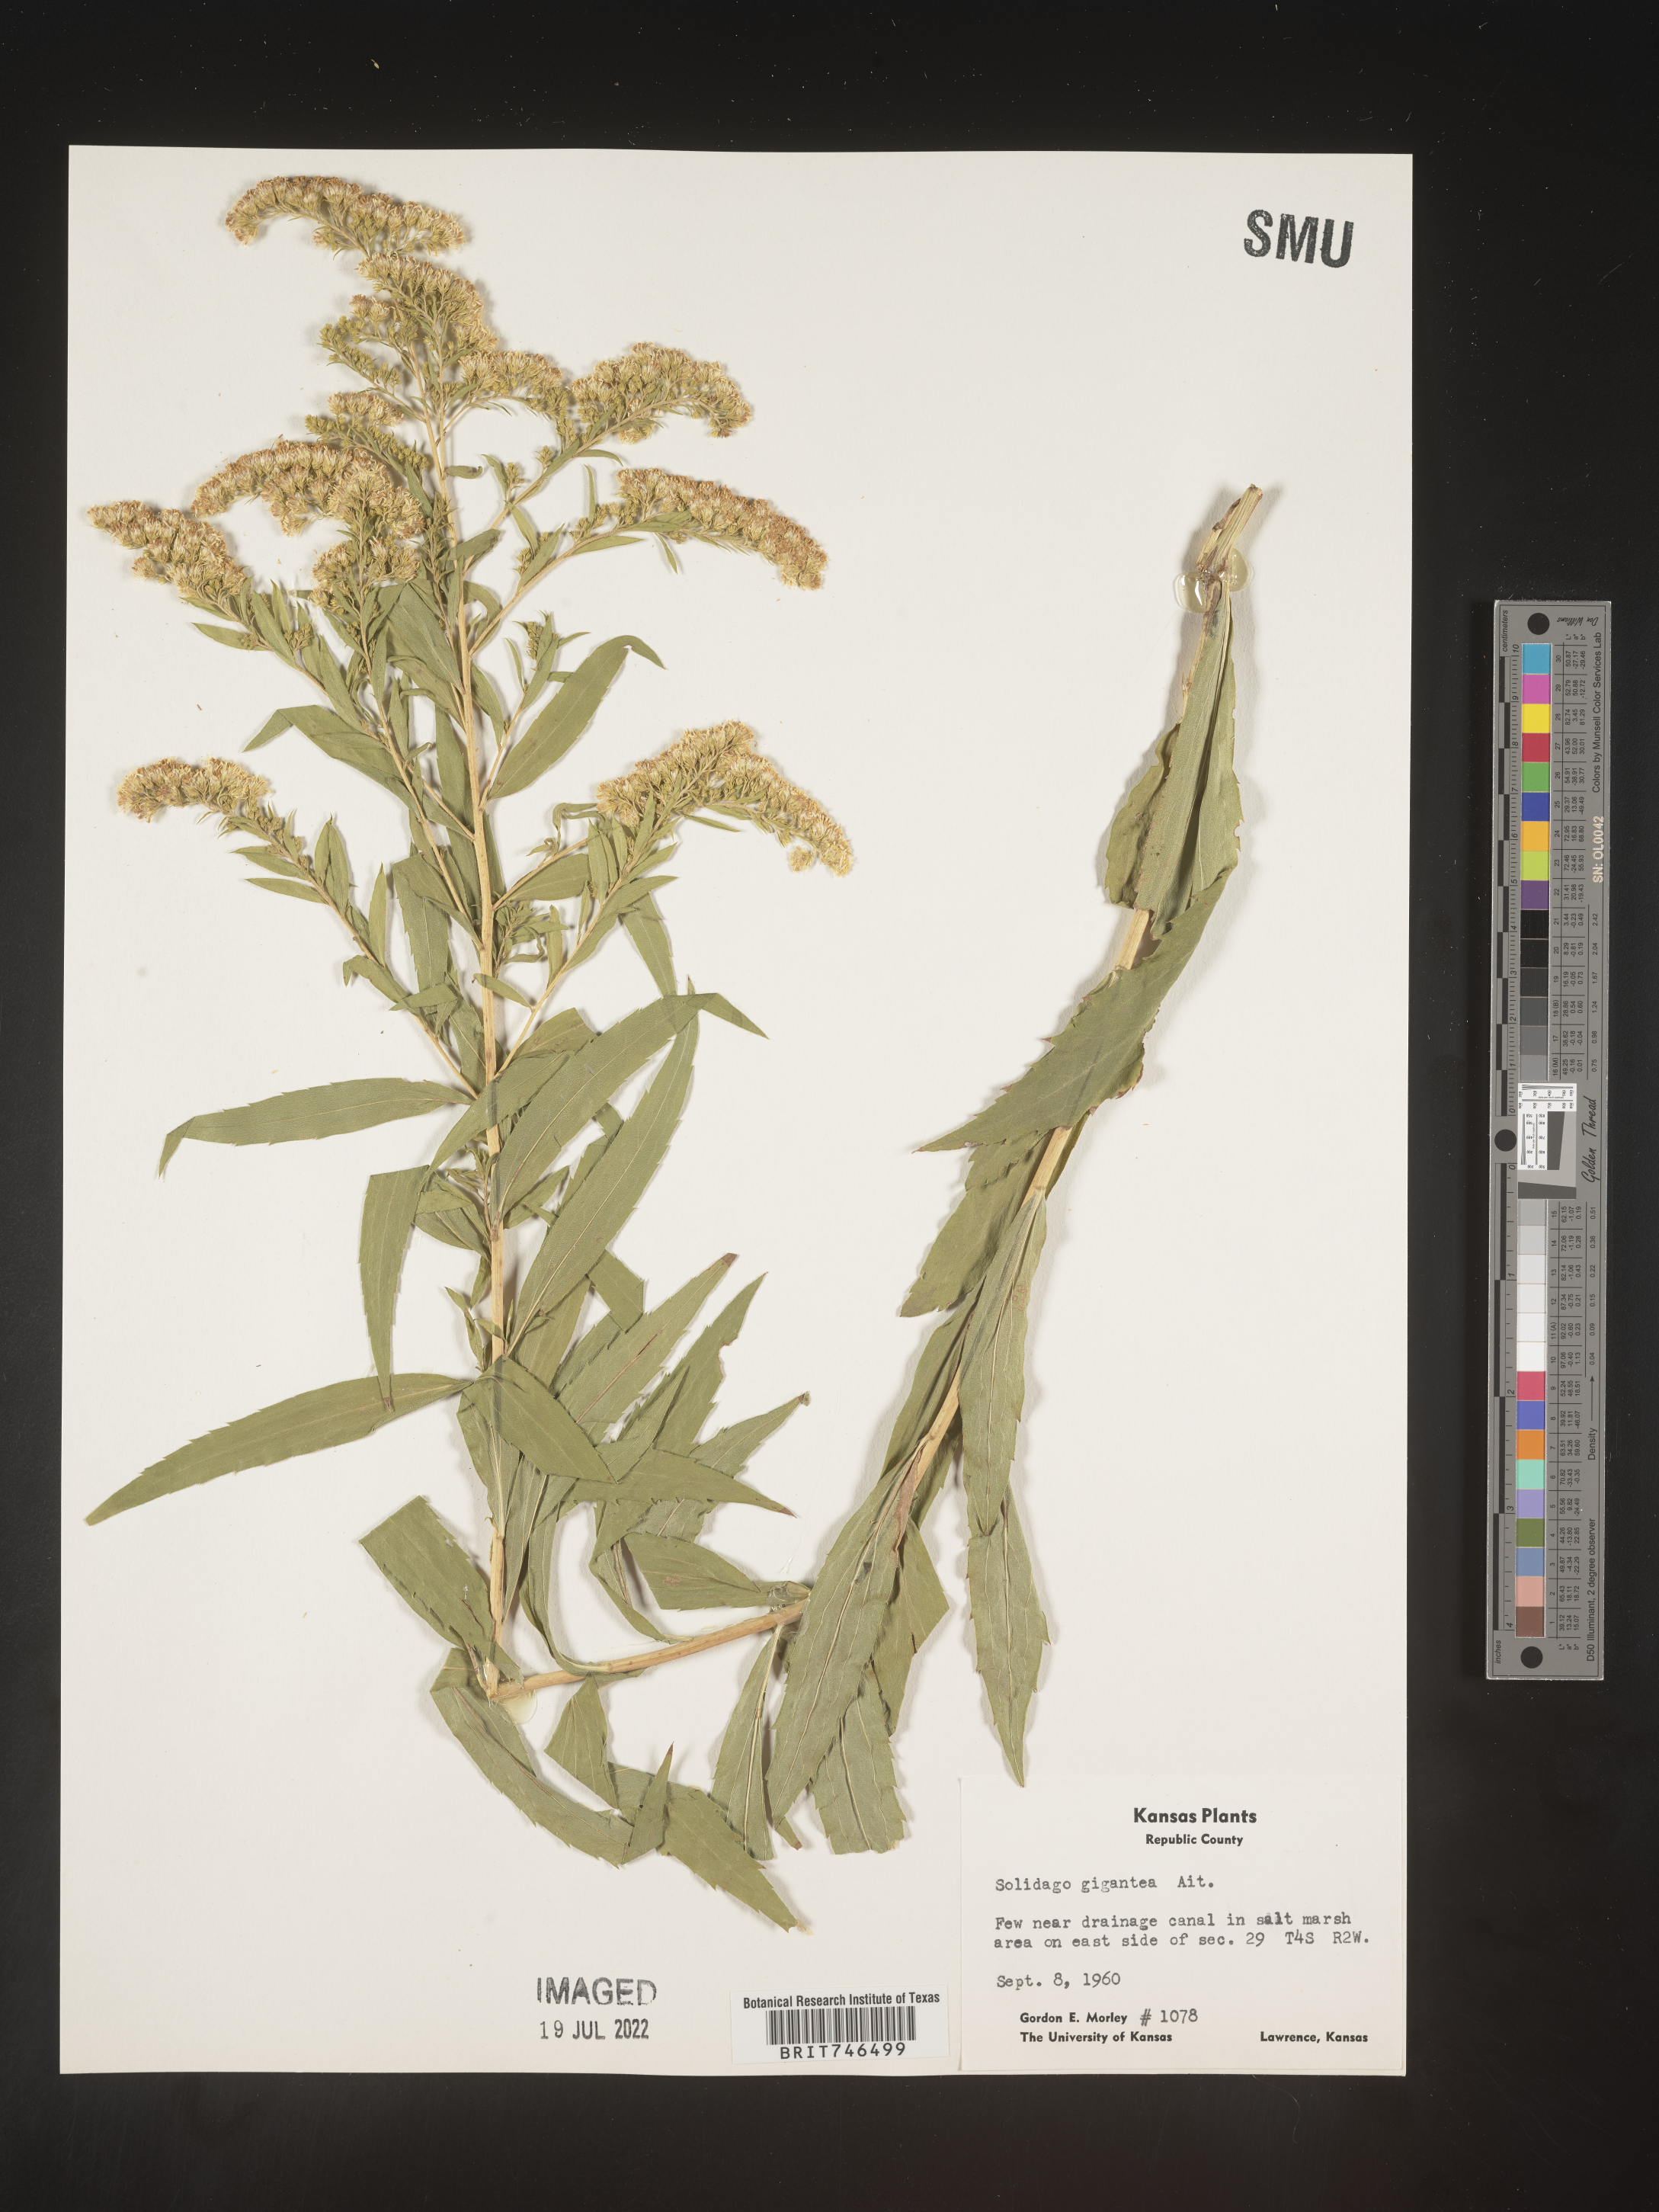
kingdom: Plantae
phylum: Tracheophyta
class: Magnoliopsida
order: Asterales
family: Asteraceae
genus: Solidago
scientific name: Solidago gigantea
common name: Giant goldenrod
